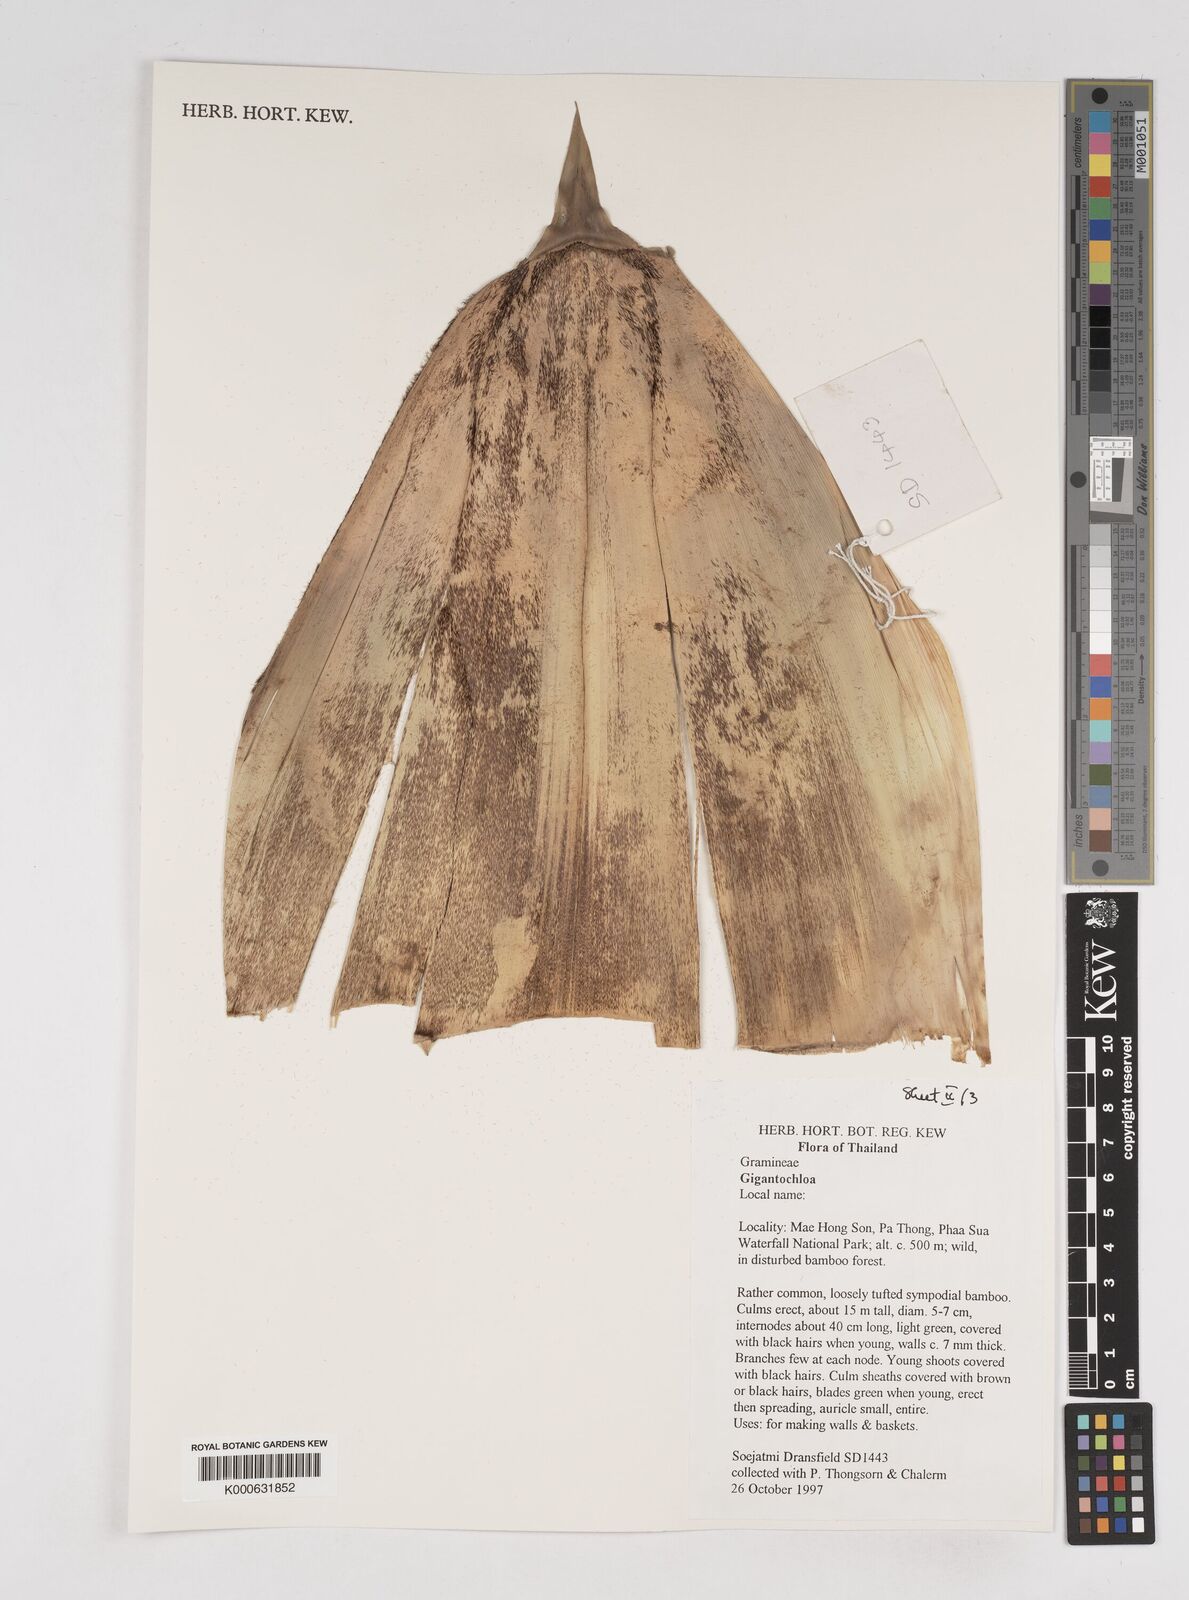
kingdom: Plantae
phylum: Tracheophyta
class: Liliopsida
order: Poales
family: Poaceae
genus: Gigantochloa
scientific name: Gigantochloa
